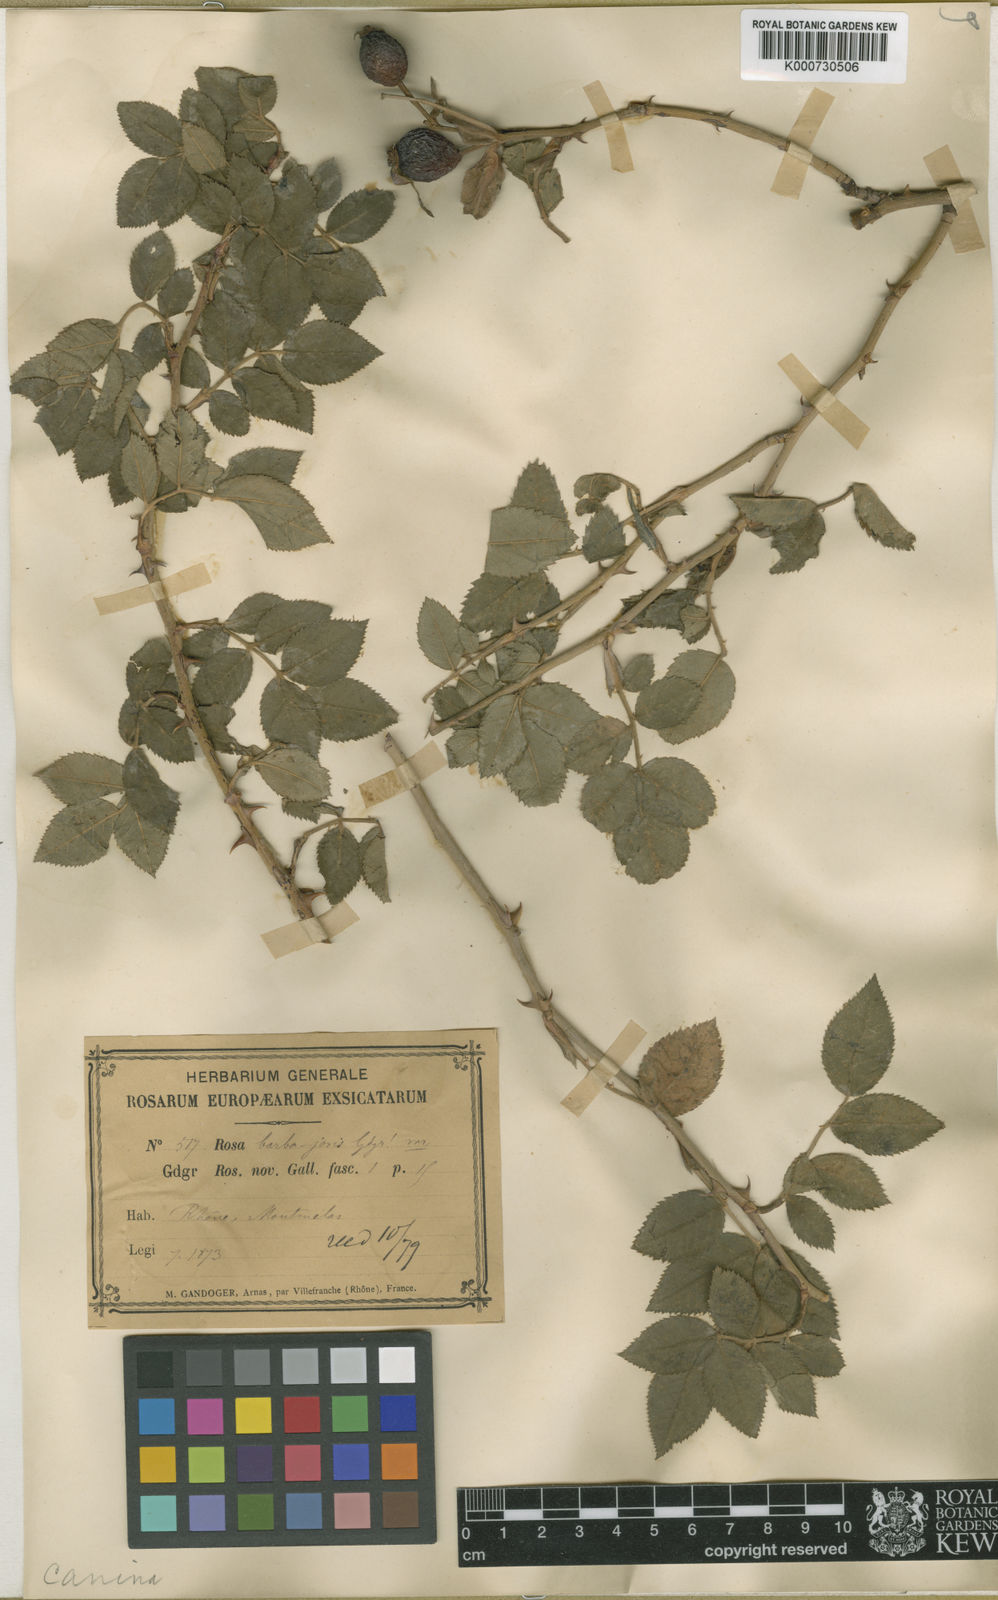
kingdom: Plantae
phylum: Tracheophyta
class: Magnoliopsida
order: Rosales
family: Rosaceae
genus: Rosa
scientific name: Rosa canina
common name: Dog rose
